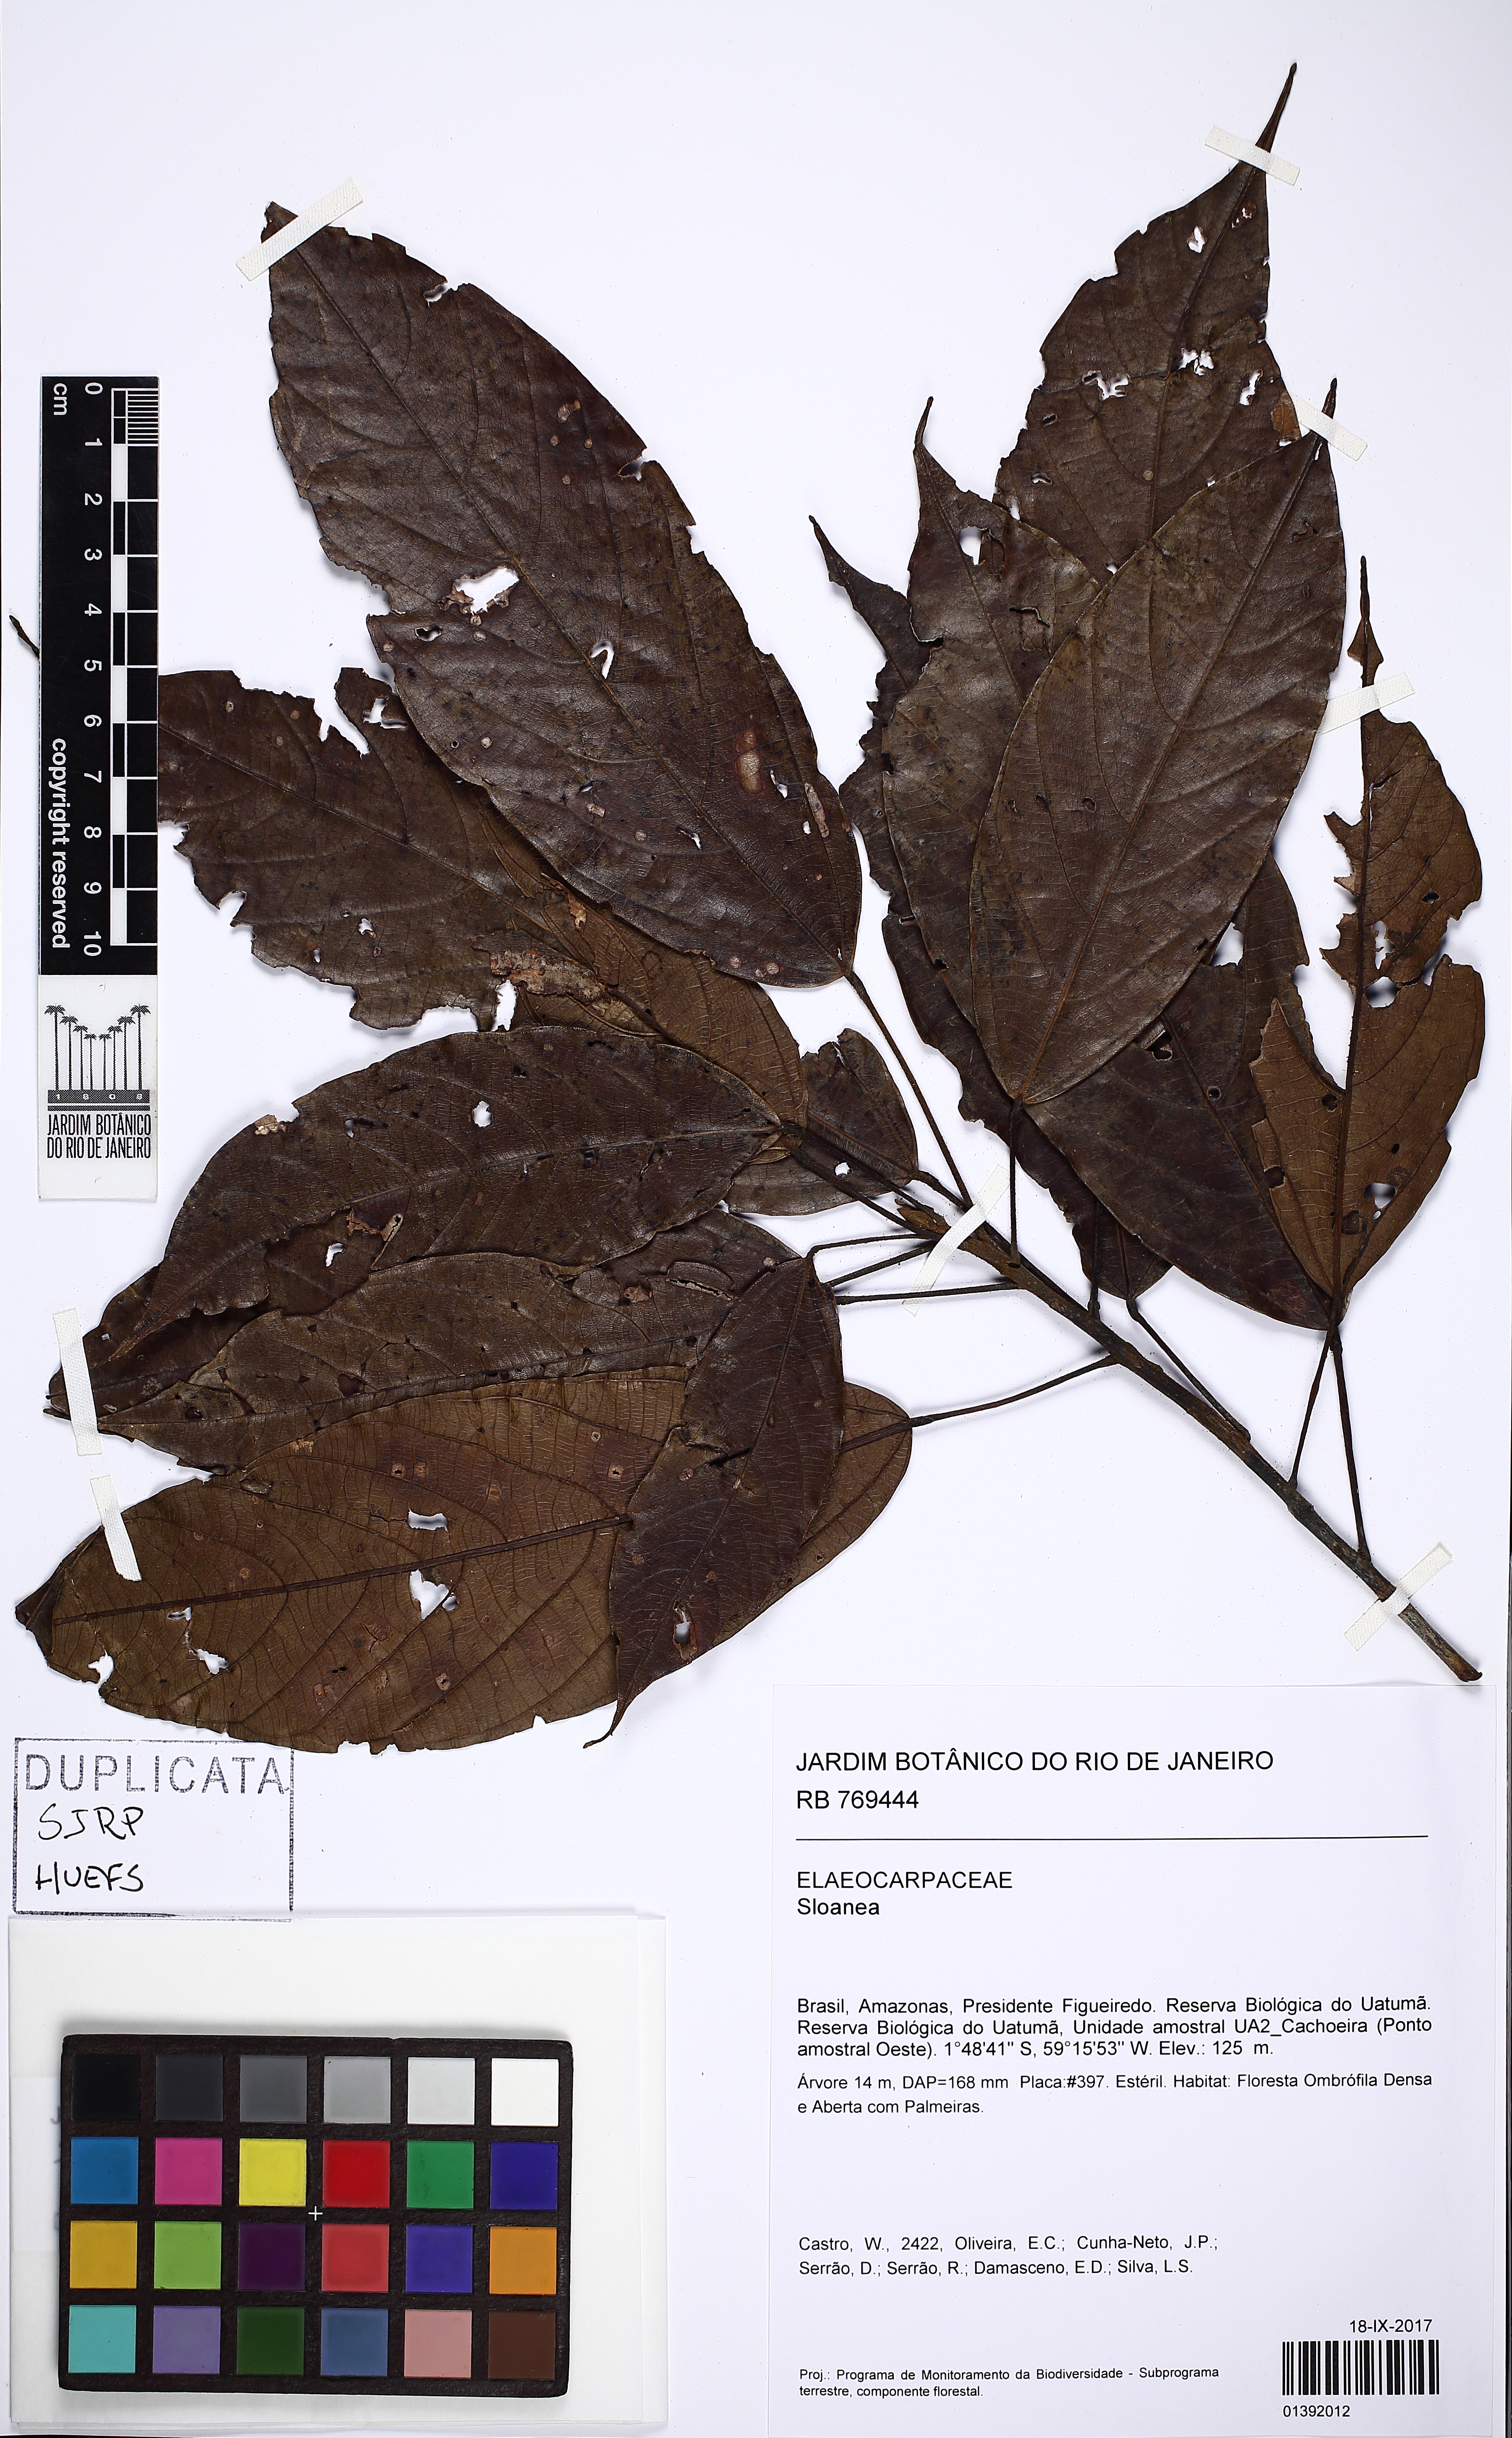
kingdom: Plantae
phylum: Tracheophyta
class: Magnoliopsida
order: Oxalidales
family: Elaeocarpaceae
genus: Sloanea
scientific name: Sloanea
